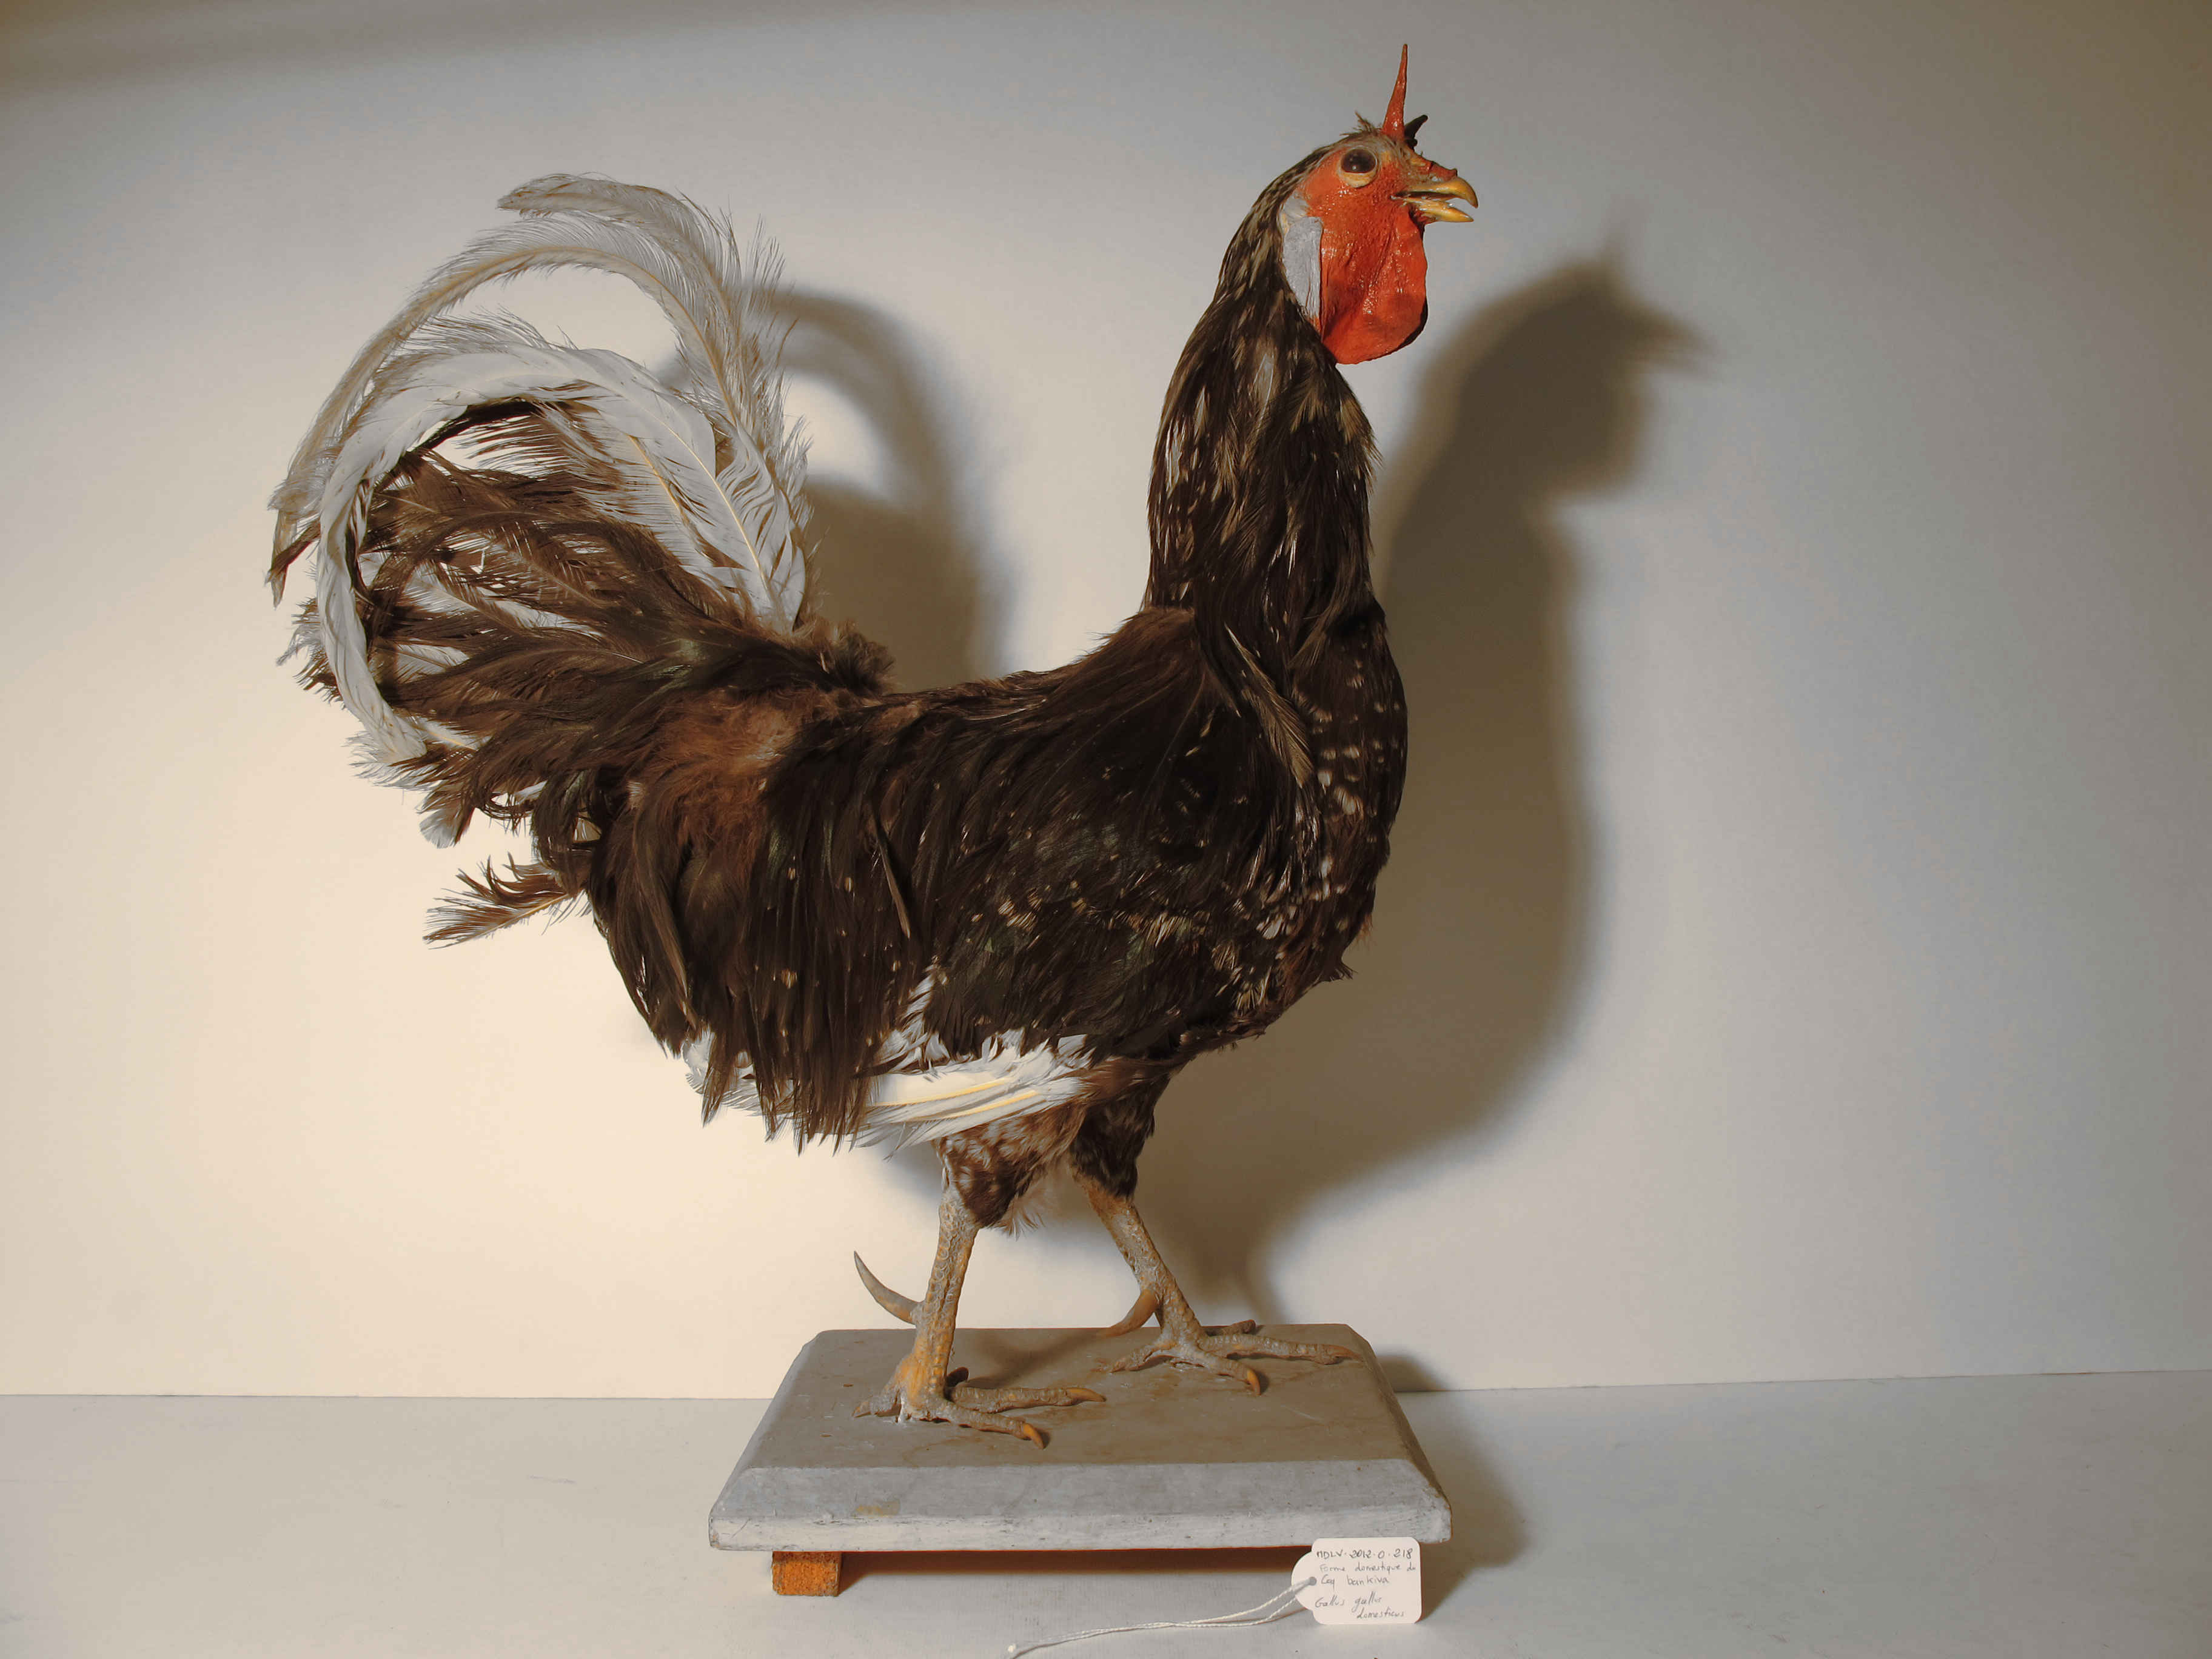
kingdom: Animalia
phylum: Chordata
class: Aves
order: Galliformes
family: Phasianidae
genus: Gallus
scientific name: Gallus gallus
